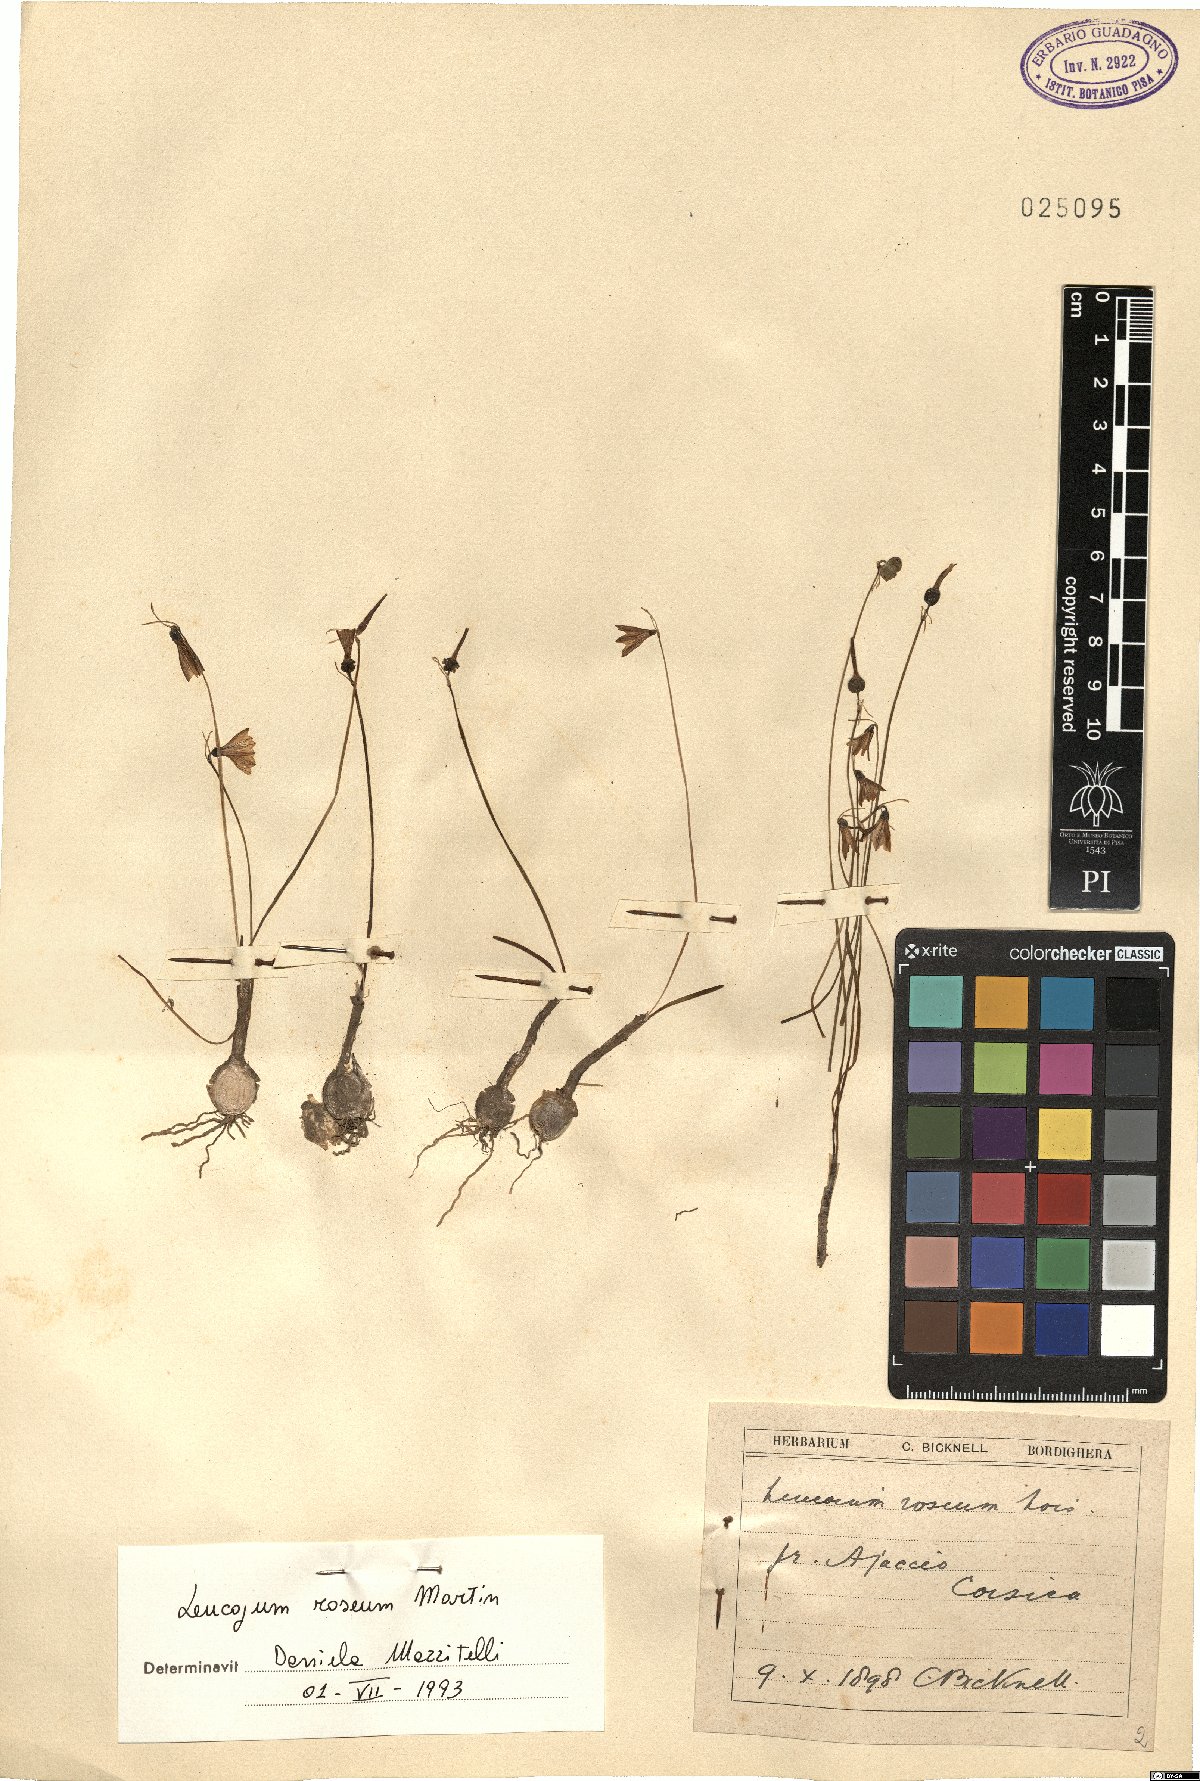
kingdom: Plantae
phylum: Tracheophyta
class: Liliopsida
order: Asparagales
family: Amaryllidaceae
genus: Acis
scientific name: Acis rosea
